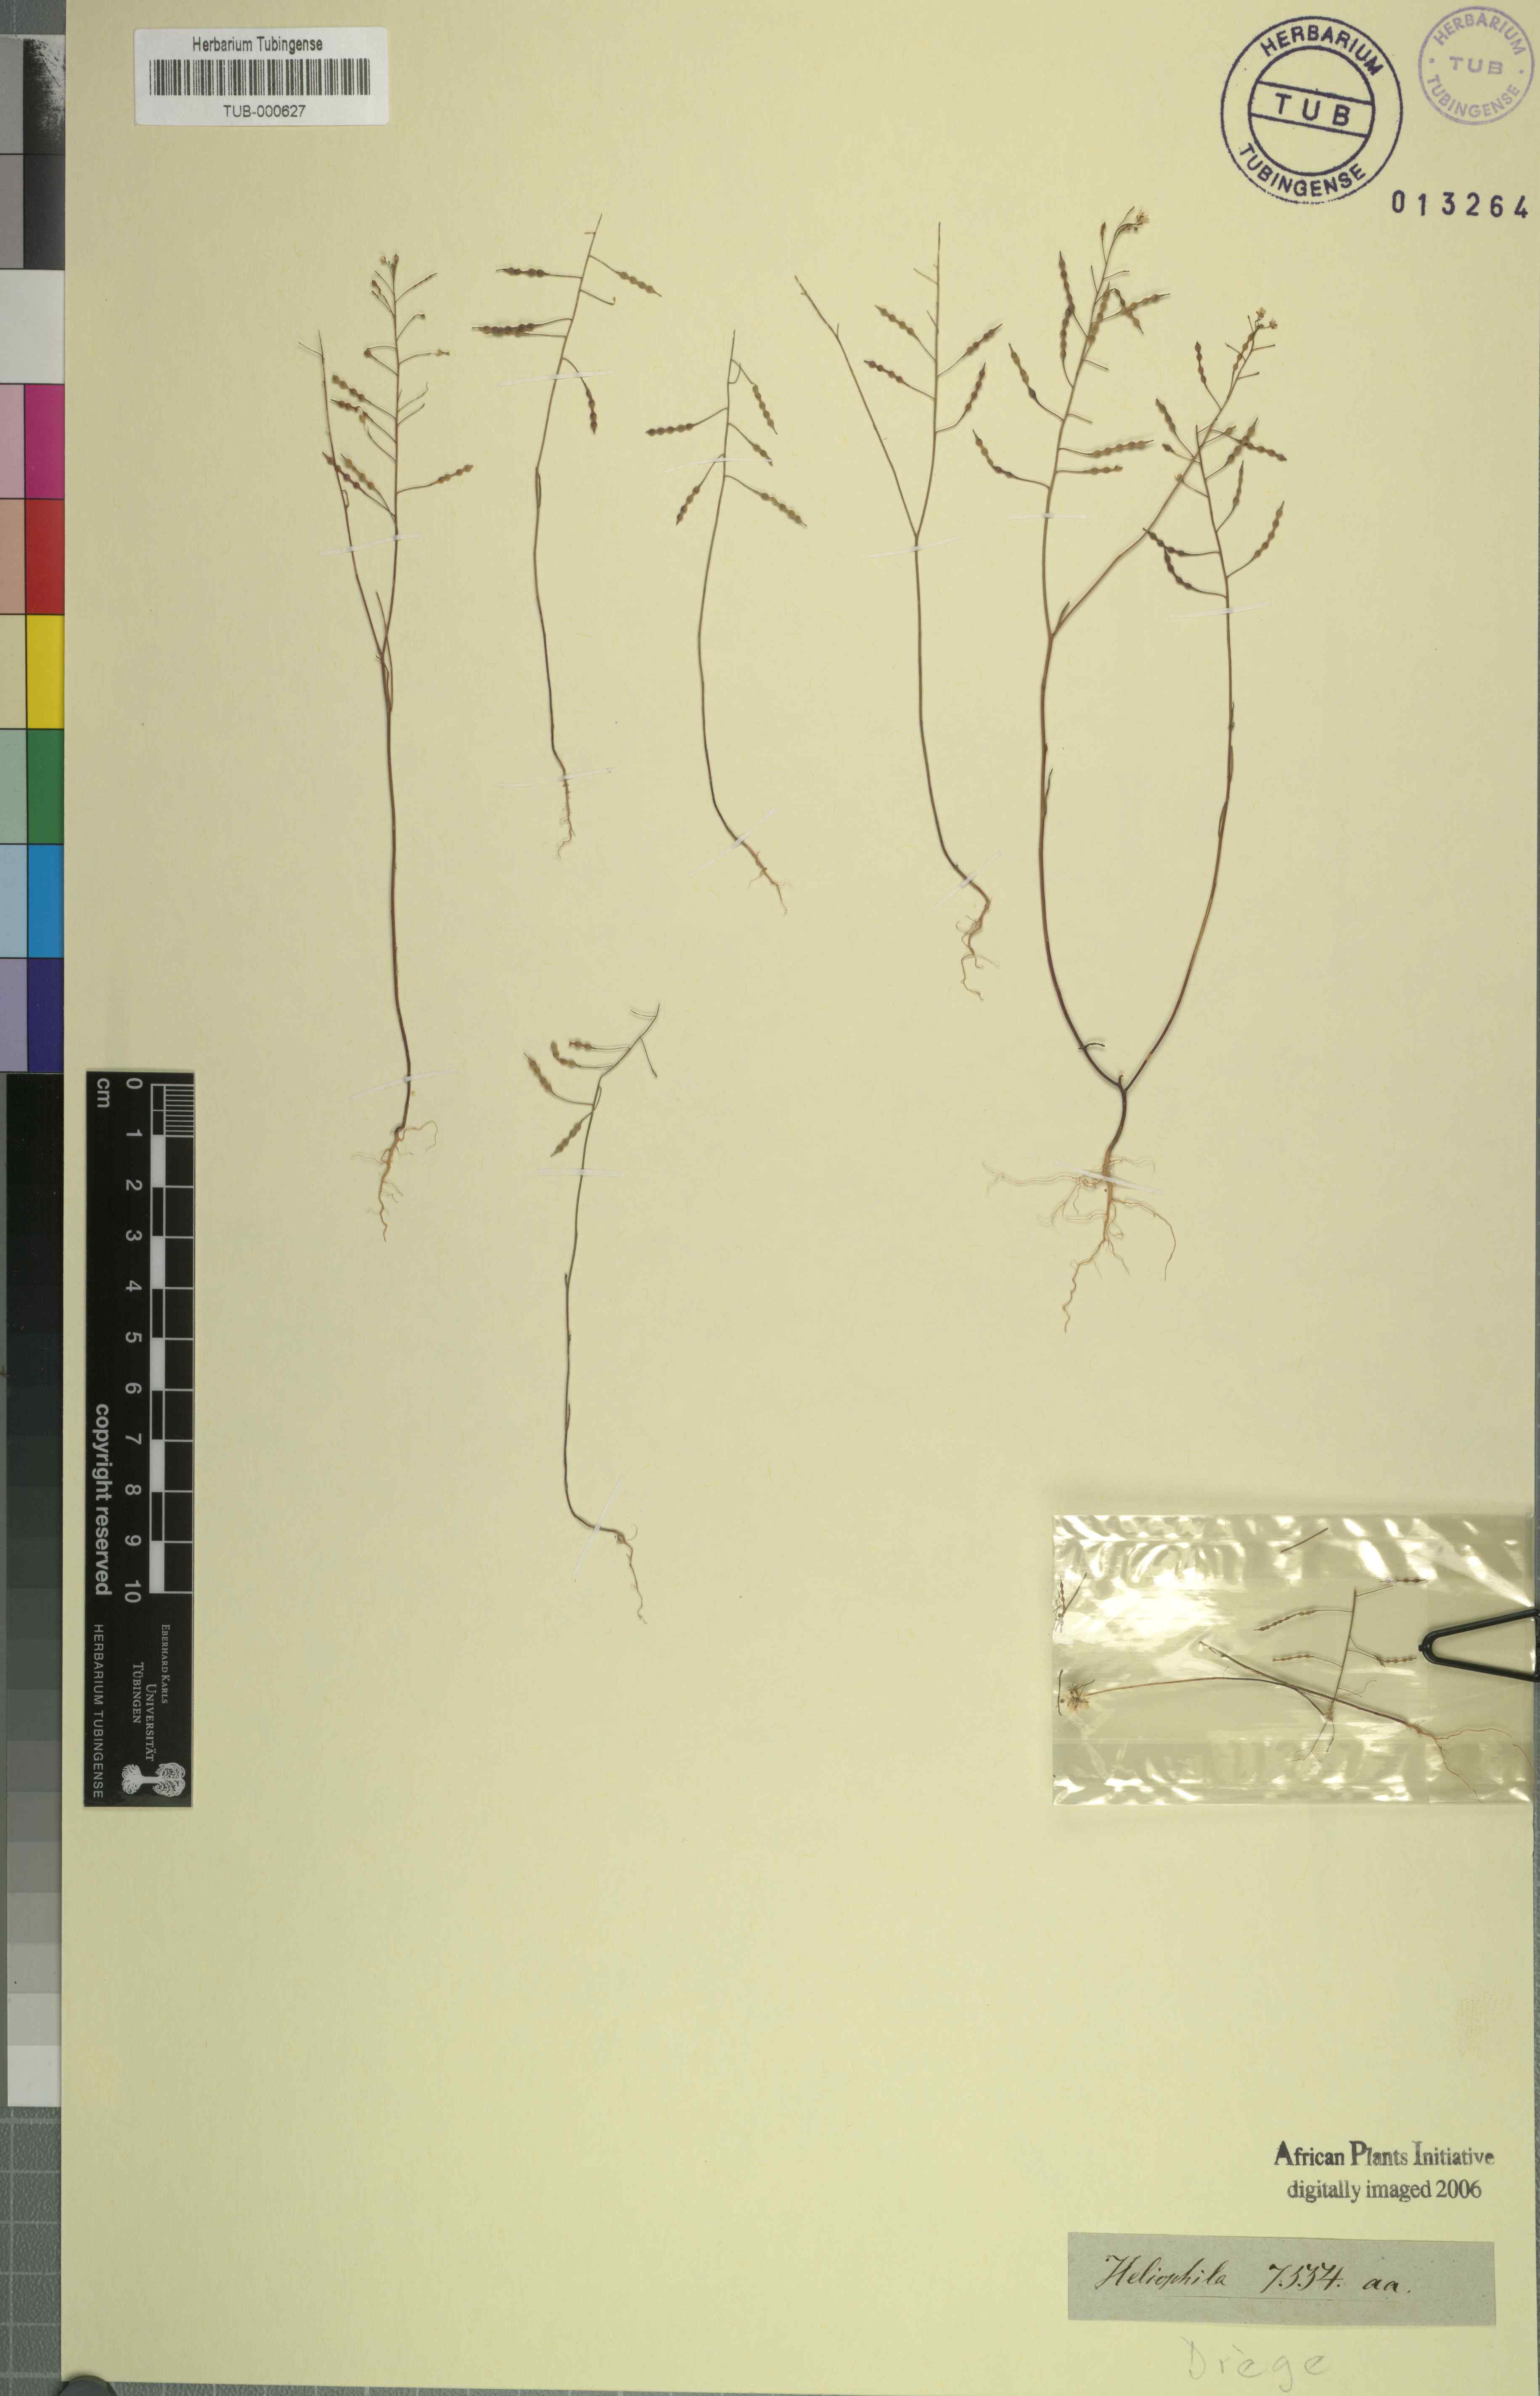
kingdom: Plantae
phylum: Tracheophyta
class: Magnoliopsida
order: Brassicales
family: Brassicaceae
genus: Heliophila
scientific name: Heliophila
